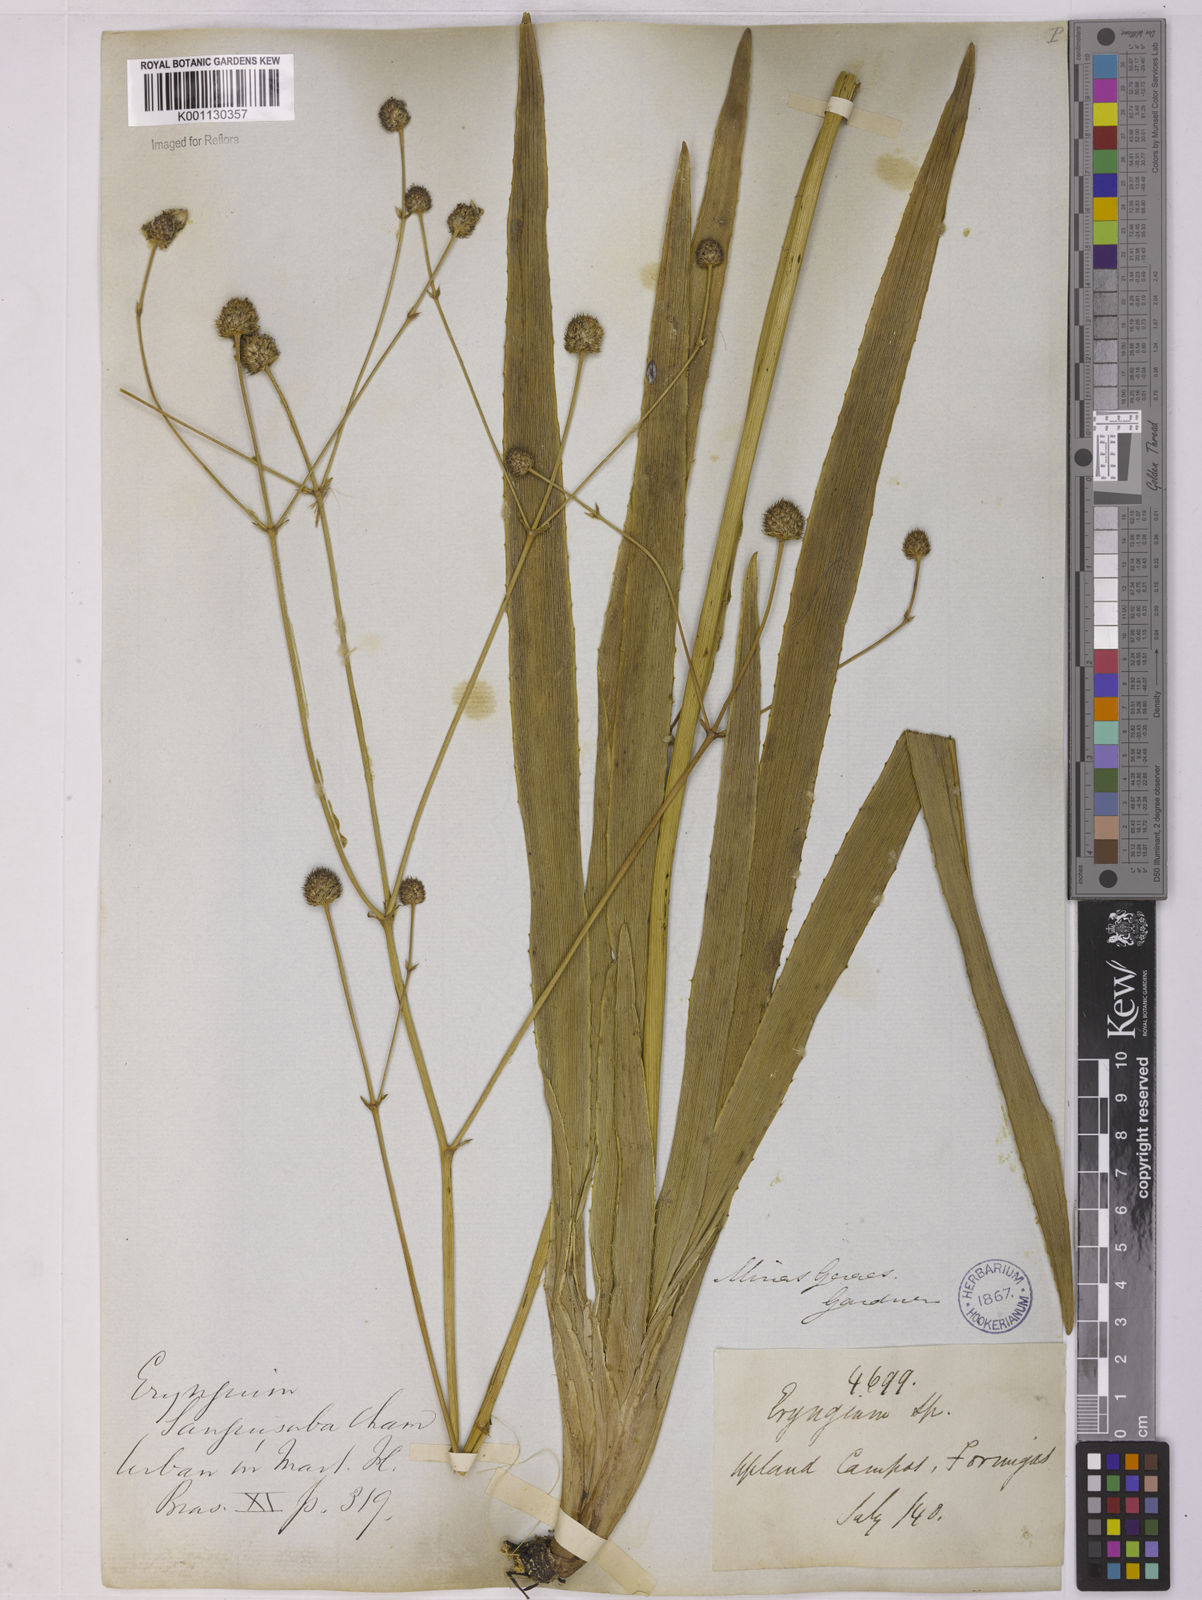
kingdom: Plantae
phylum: Tracheophyta
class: Magnoliopsida
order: Apiales
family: Apiaceae
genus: Eryngium
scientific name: Eryngium sanguisorba
